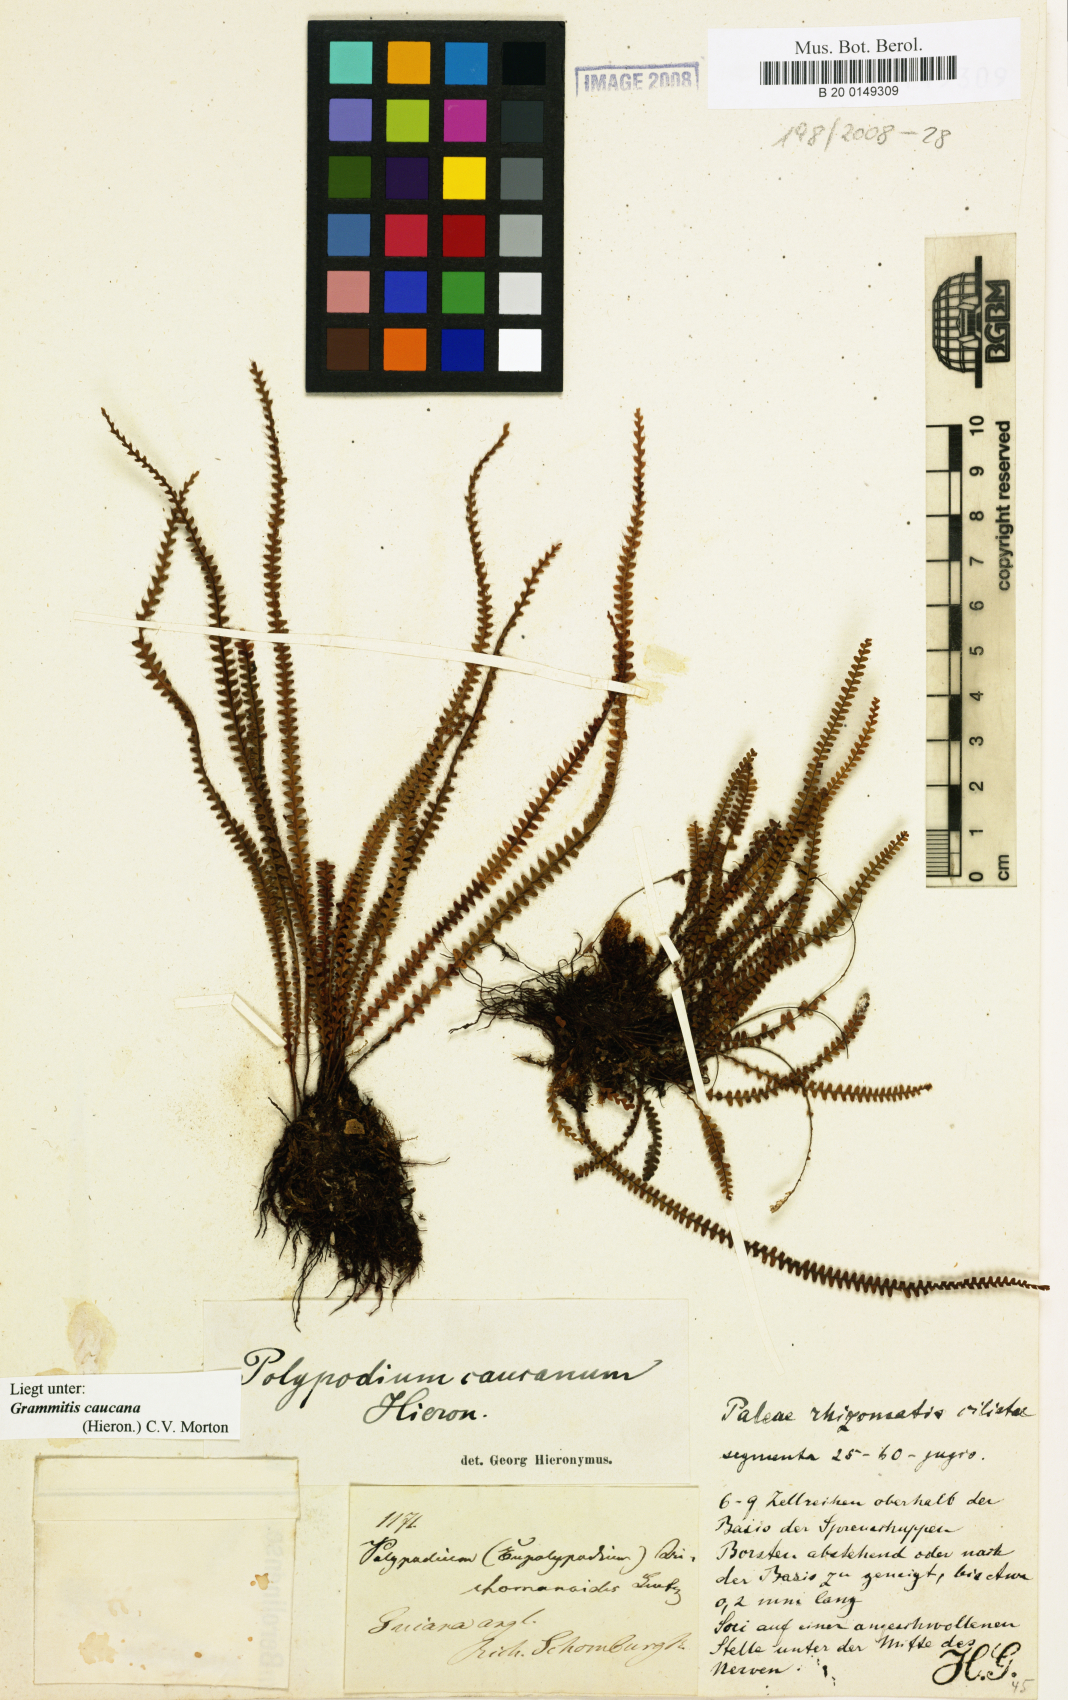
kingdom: Plantae
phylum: Tracheophyta
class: Polypodiopsida
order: Polypodiales
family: Polypodiaceae
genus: Moranopteris
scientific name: Moranopteris taenifolia
